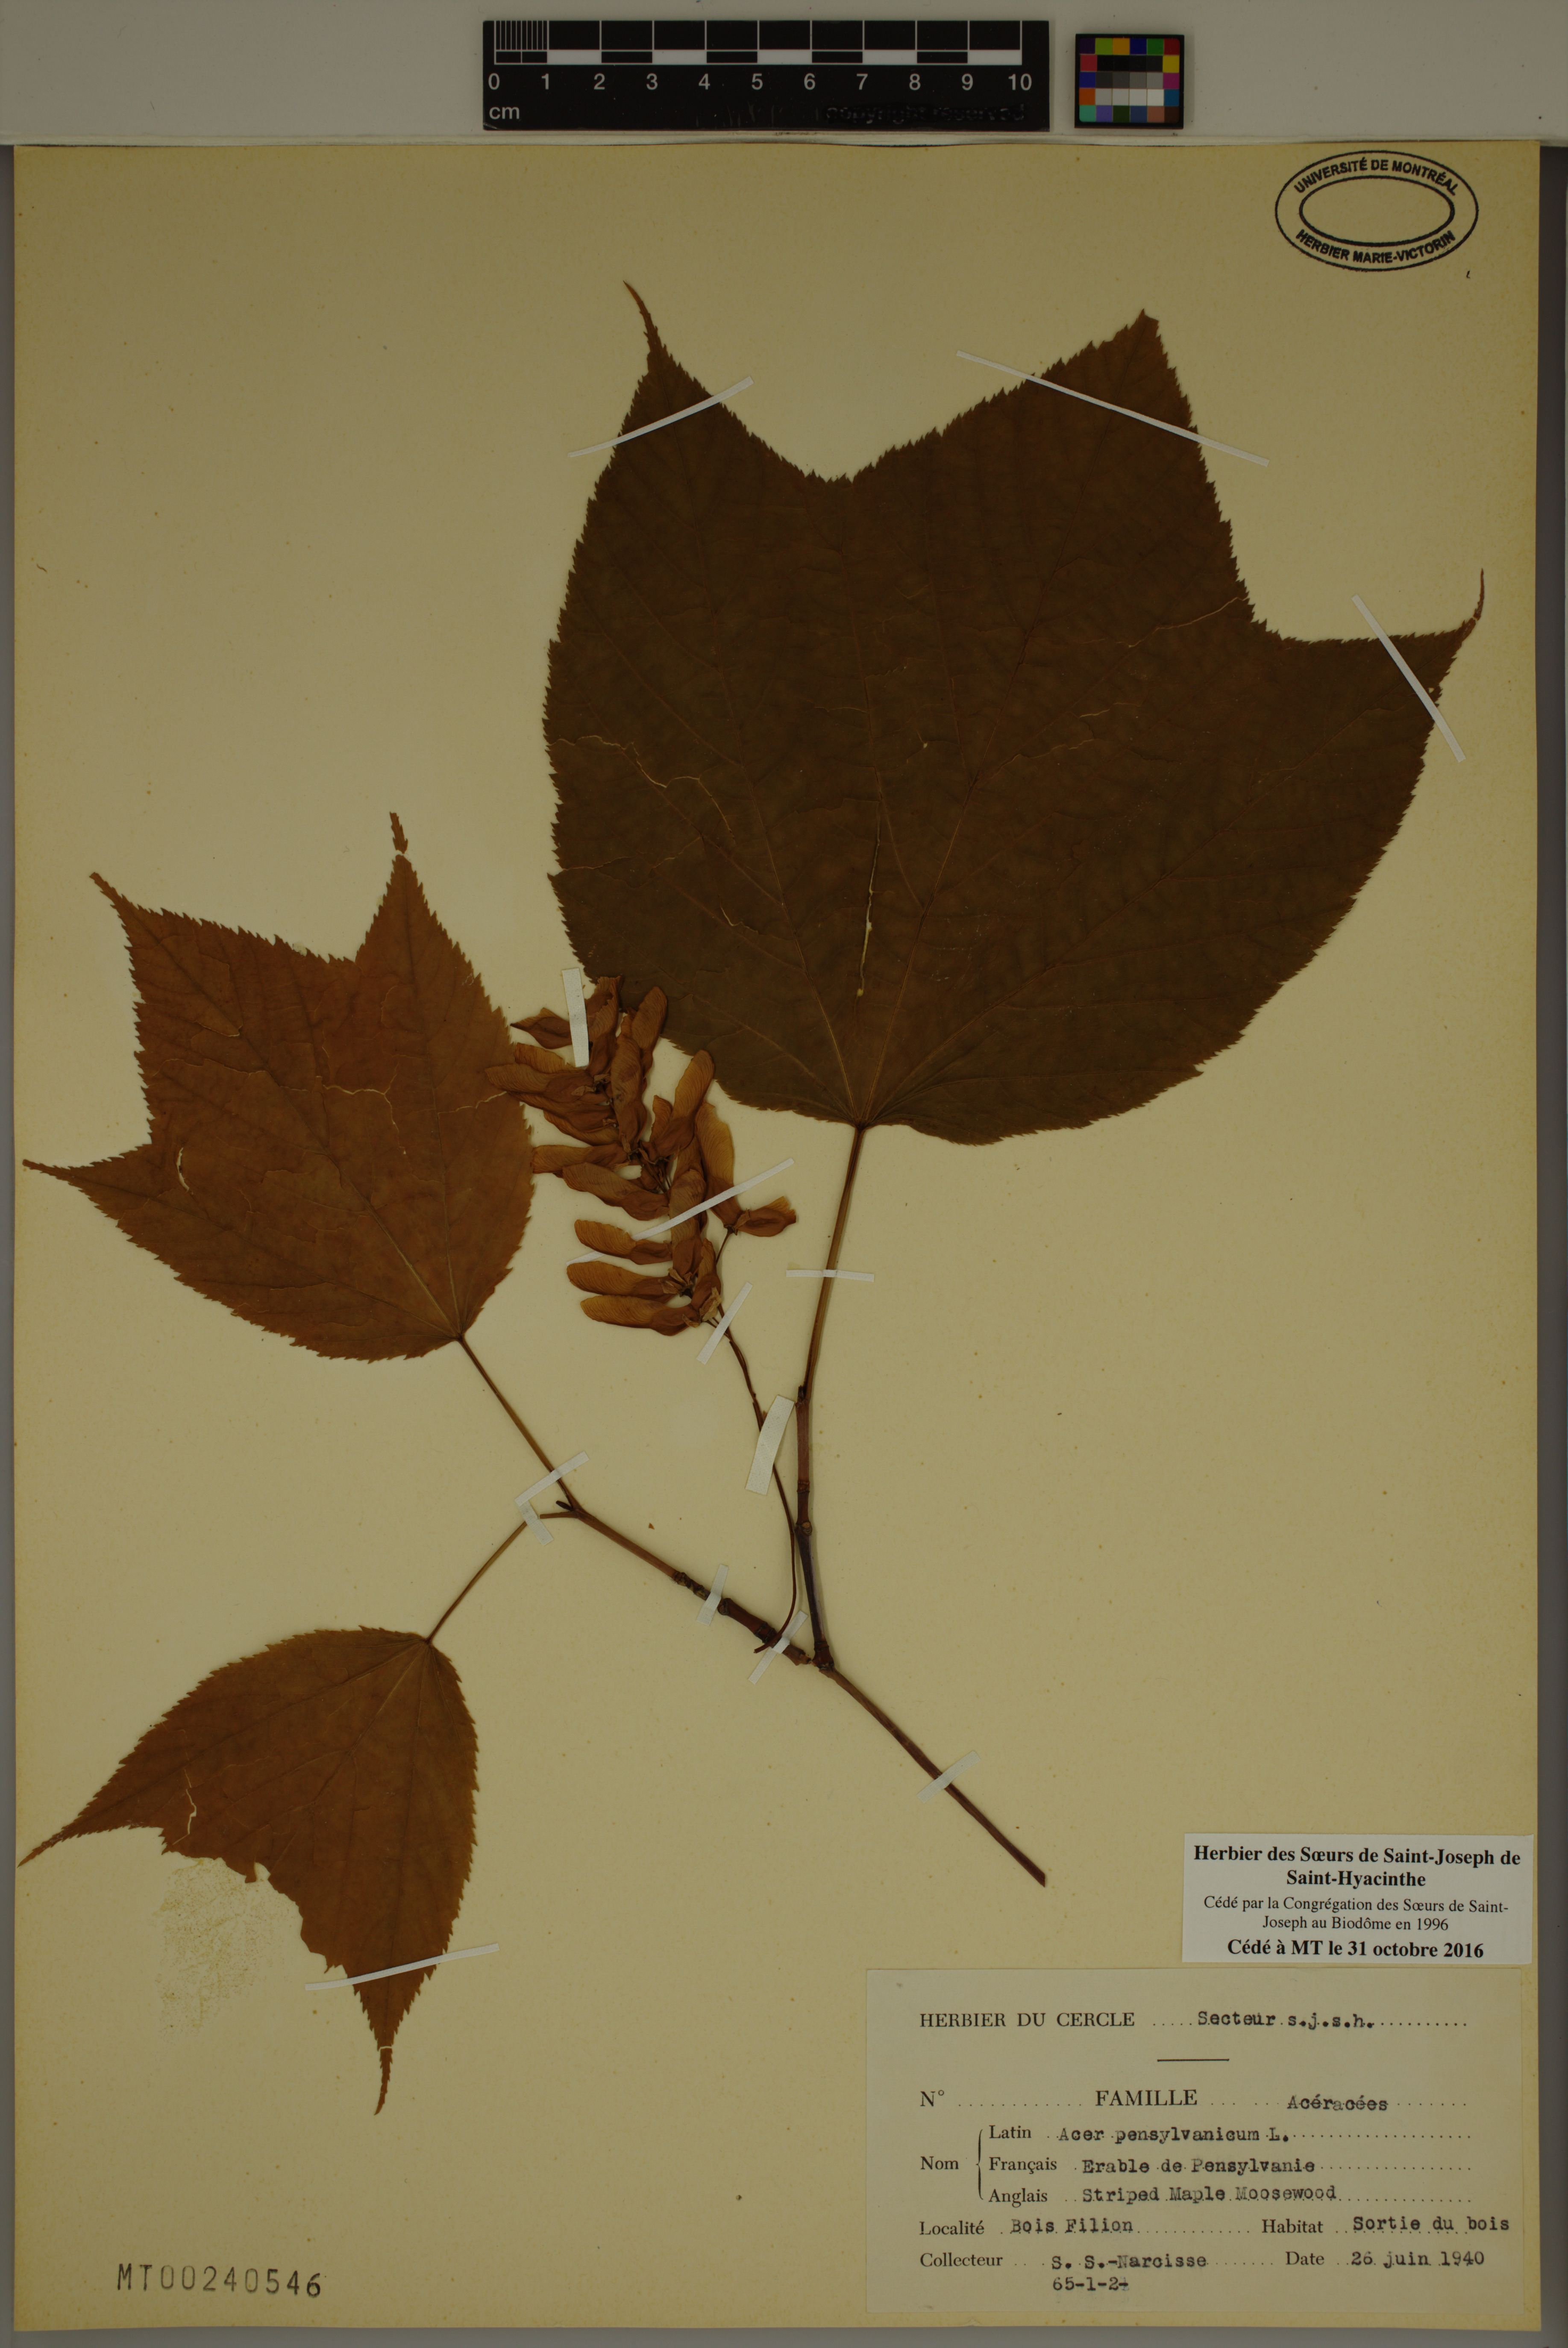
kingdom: Plantae
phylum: Tracheophyta
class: Magnoliopsida
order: Sapindales
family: Sapindaceae
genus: Acer
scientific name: Acer pensylvanicum
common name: Moosewood
